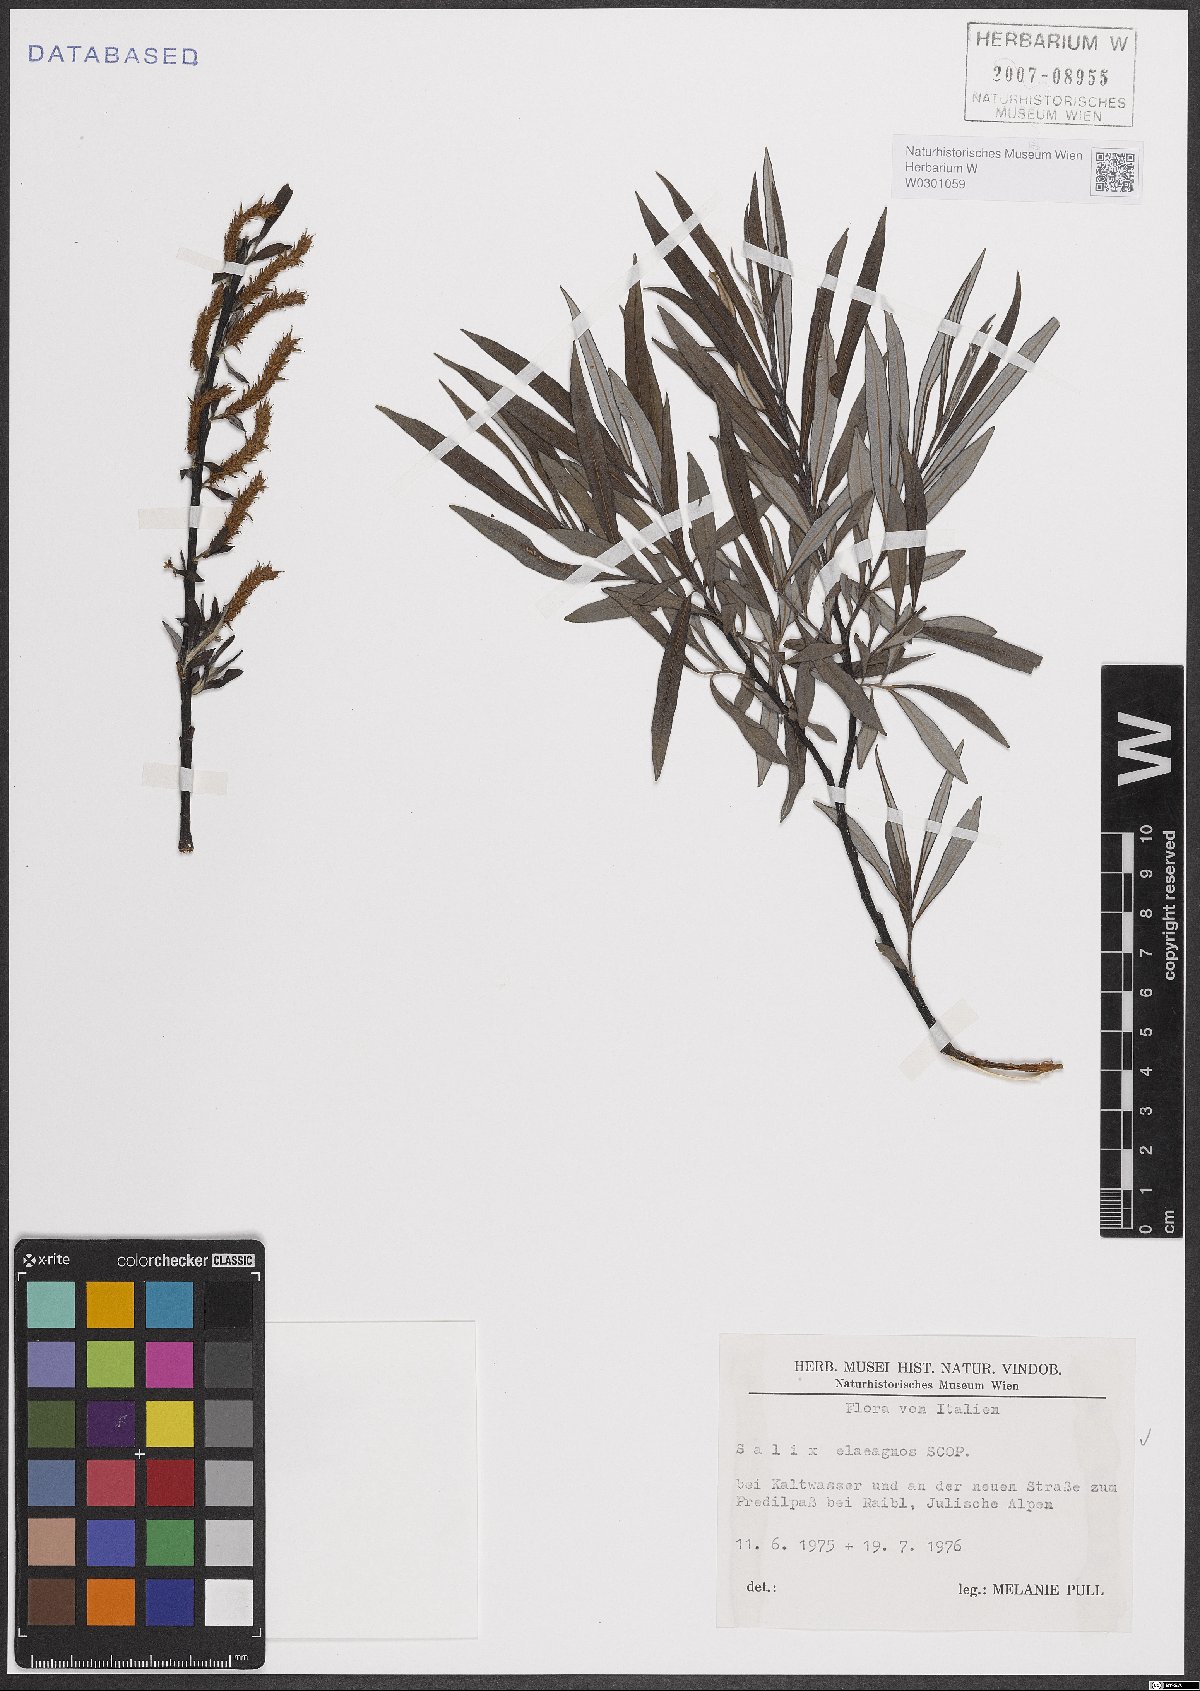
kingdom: Plantae
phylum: Tracheophyta
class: Magnoliopsida
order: Malpighiales
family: Salicaceae
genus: Salix
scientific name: Salix eleagnos
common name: Elaeagnus willow
